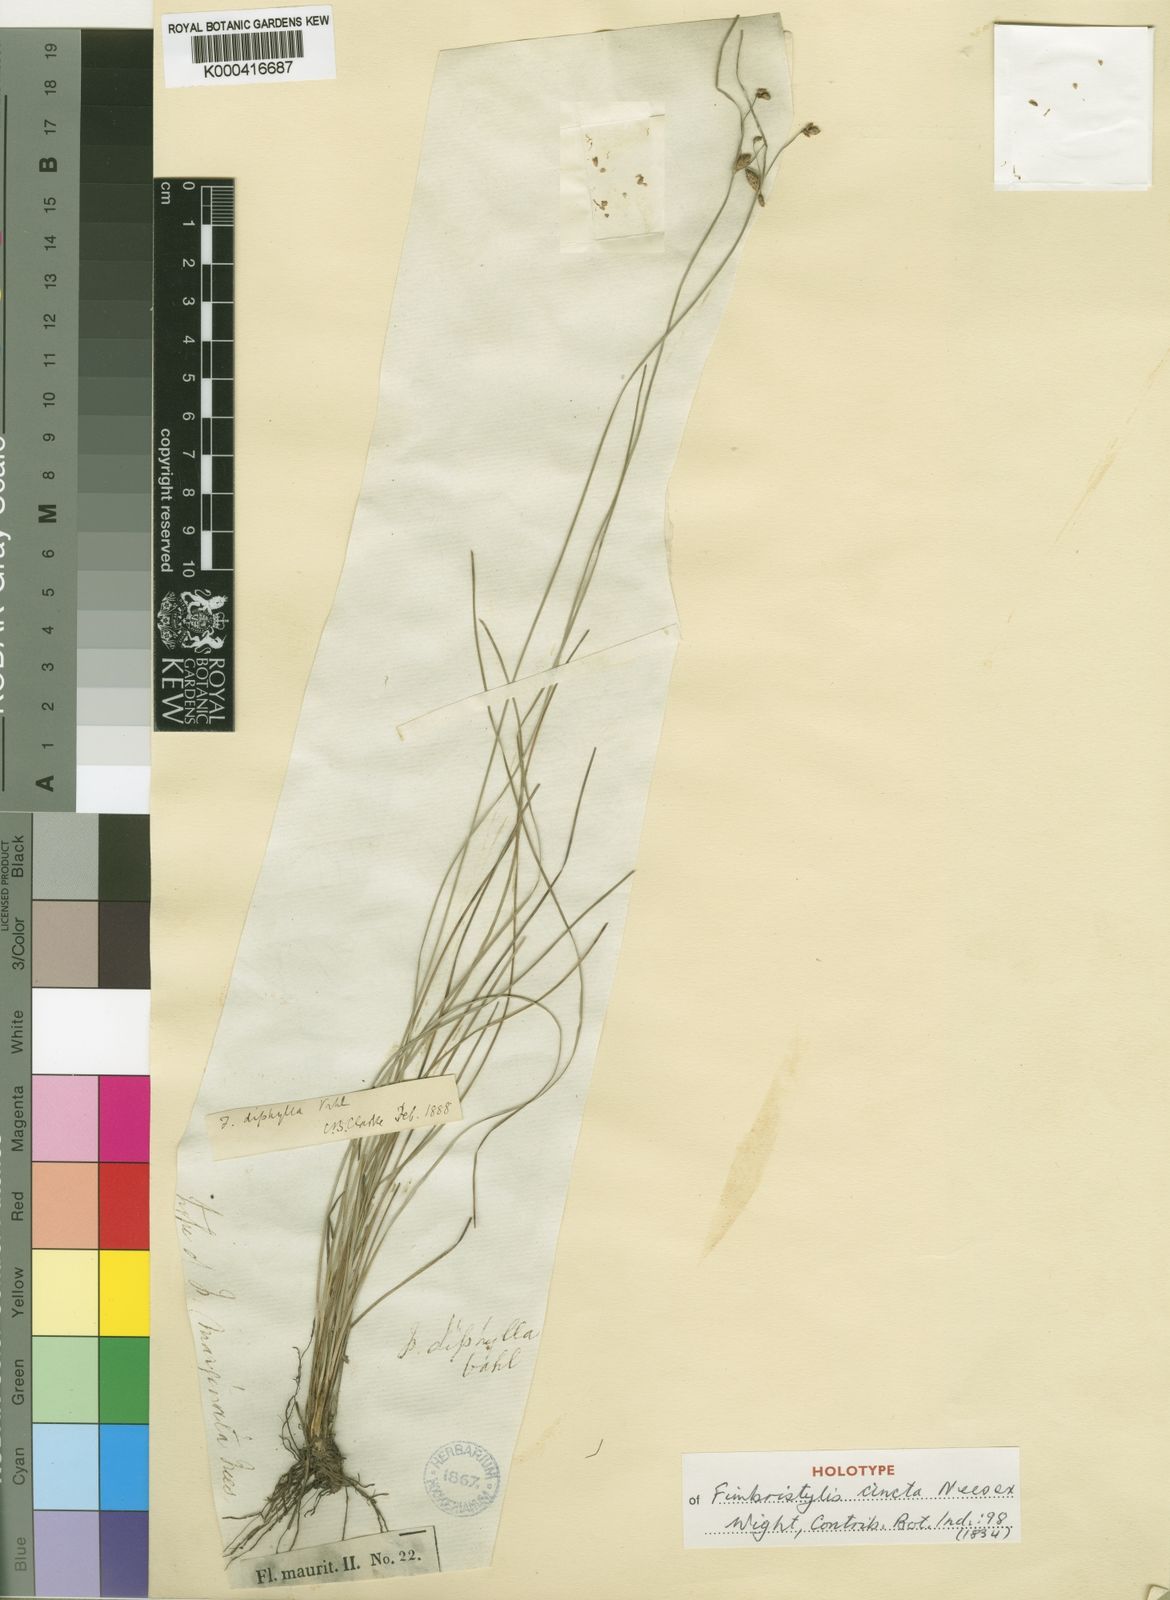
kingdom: Plantae
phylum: Tracheophyta
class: Liliopsida
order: Poales
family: Cyperaceae
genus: Fimbristylis
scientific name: Fimbristylis dichotoma
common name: Forked fimbry
